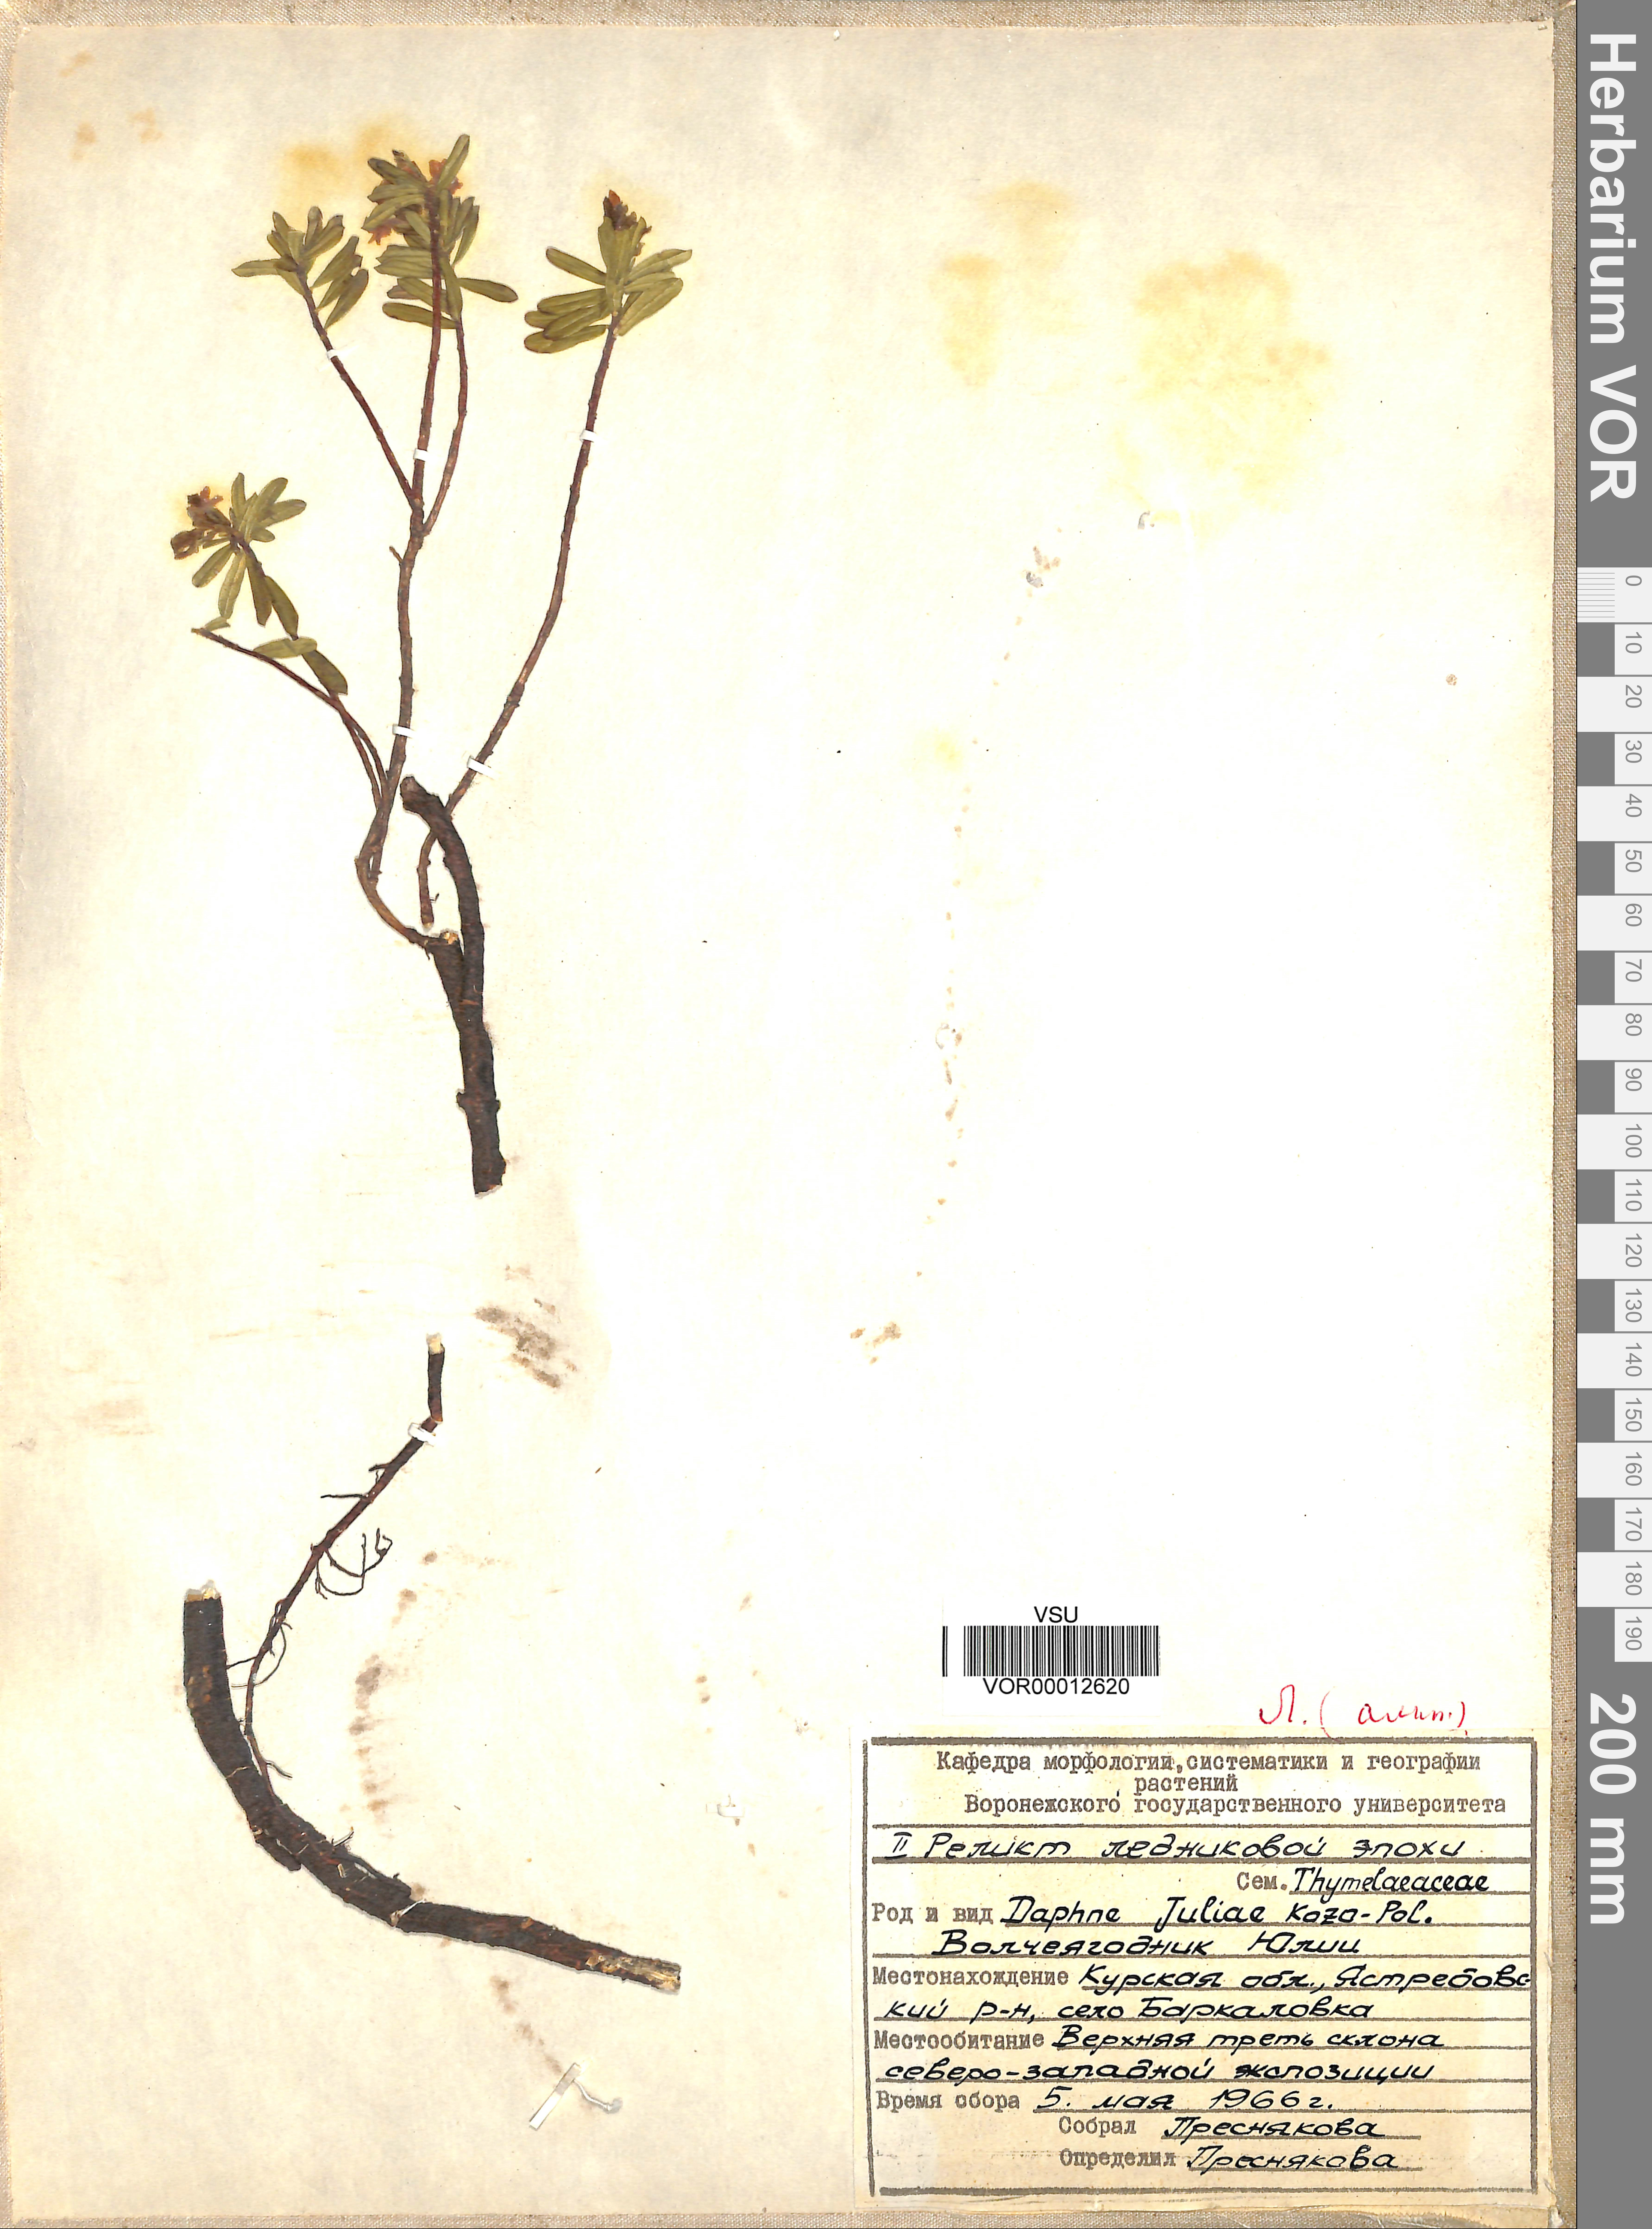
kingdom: Plantae
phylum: Tracheophyta
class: Magnoliopsida
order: Malvales
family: Thymelaeaceae
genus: Daphne
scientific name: Daphne cneorum
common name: Garland-flower
